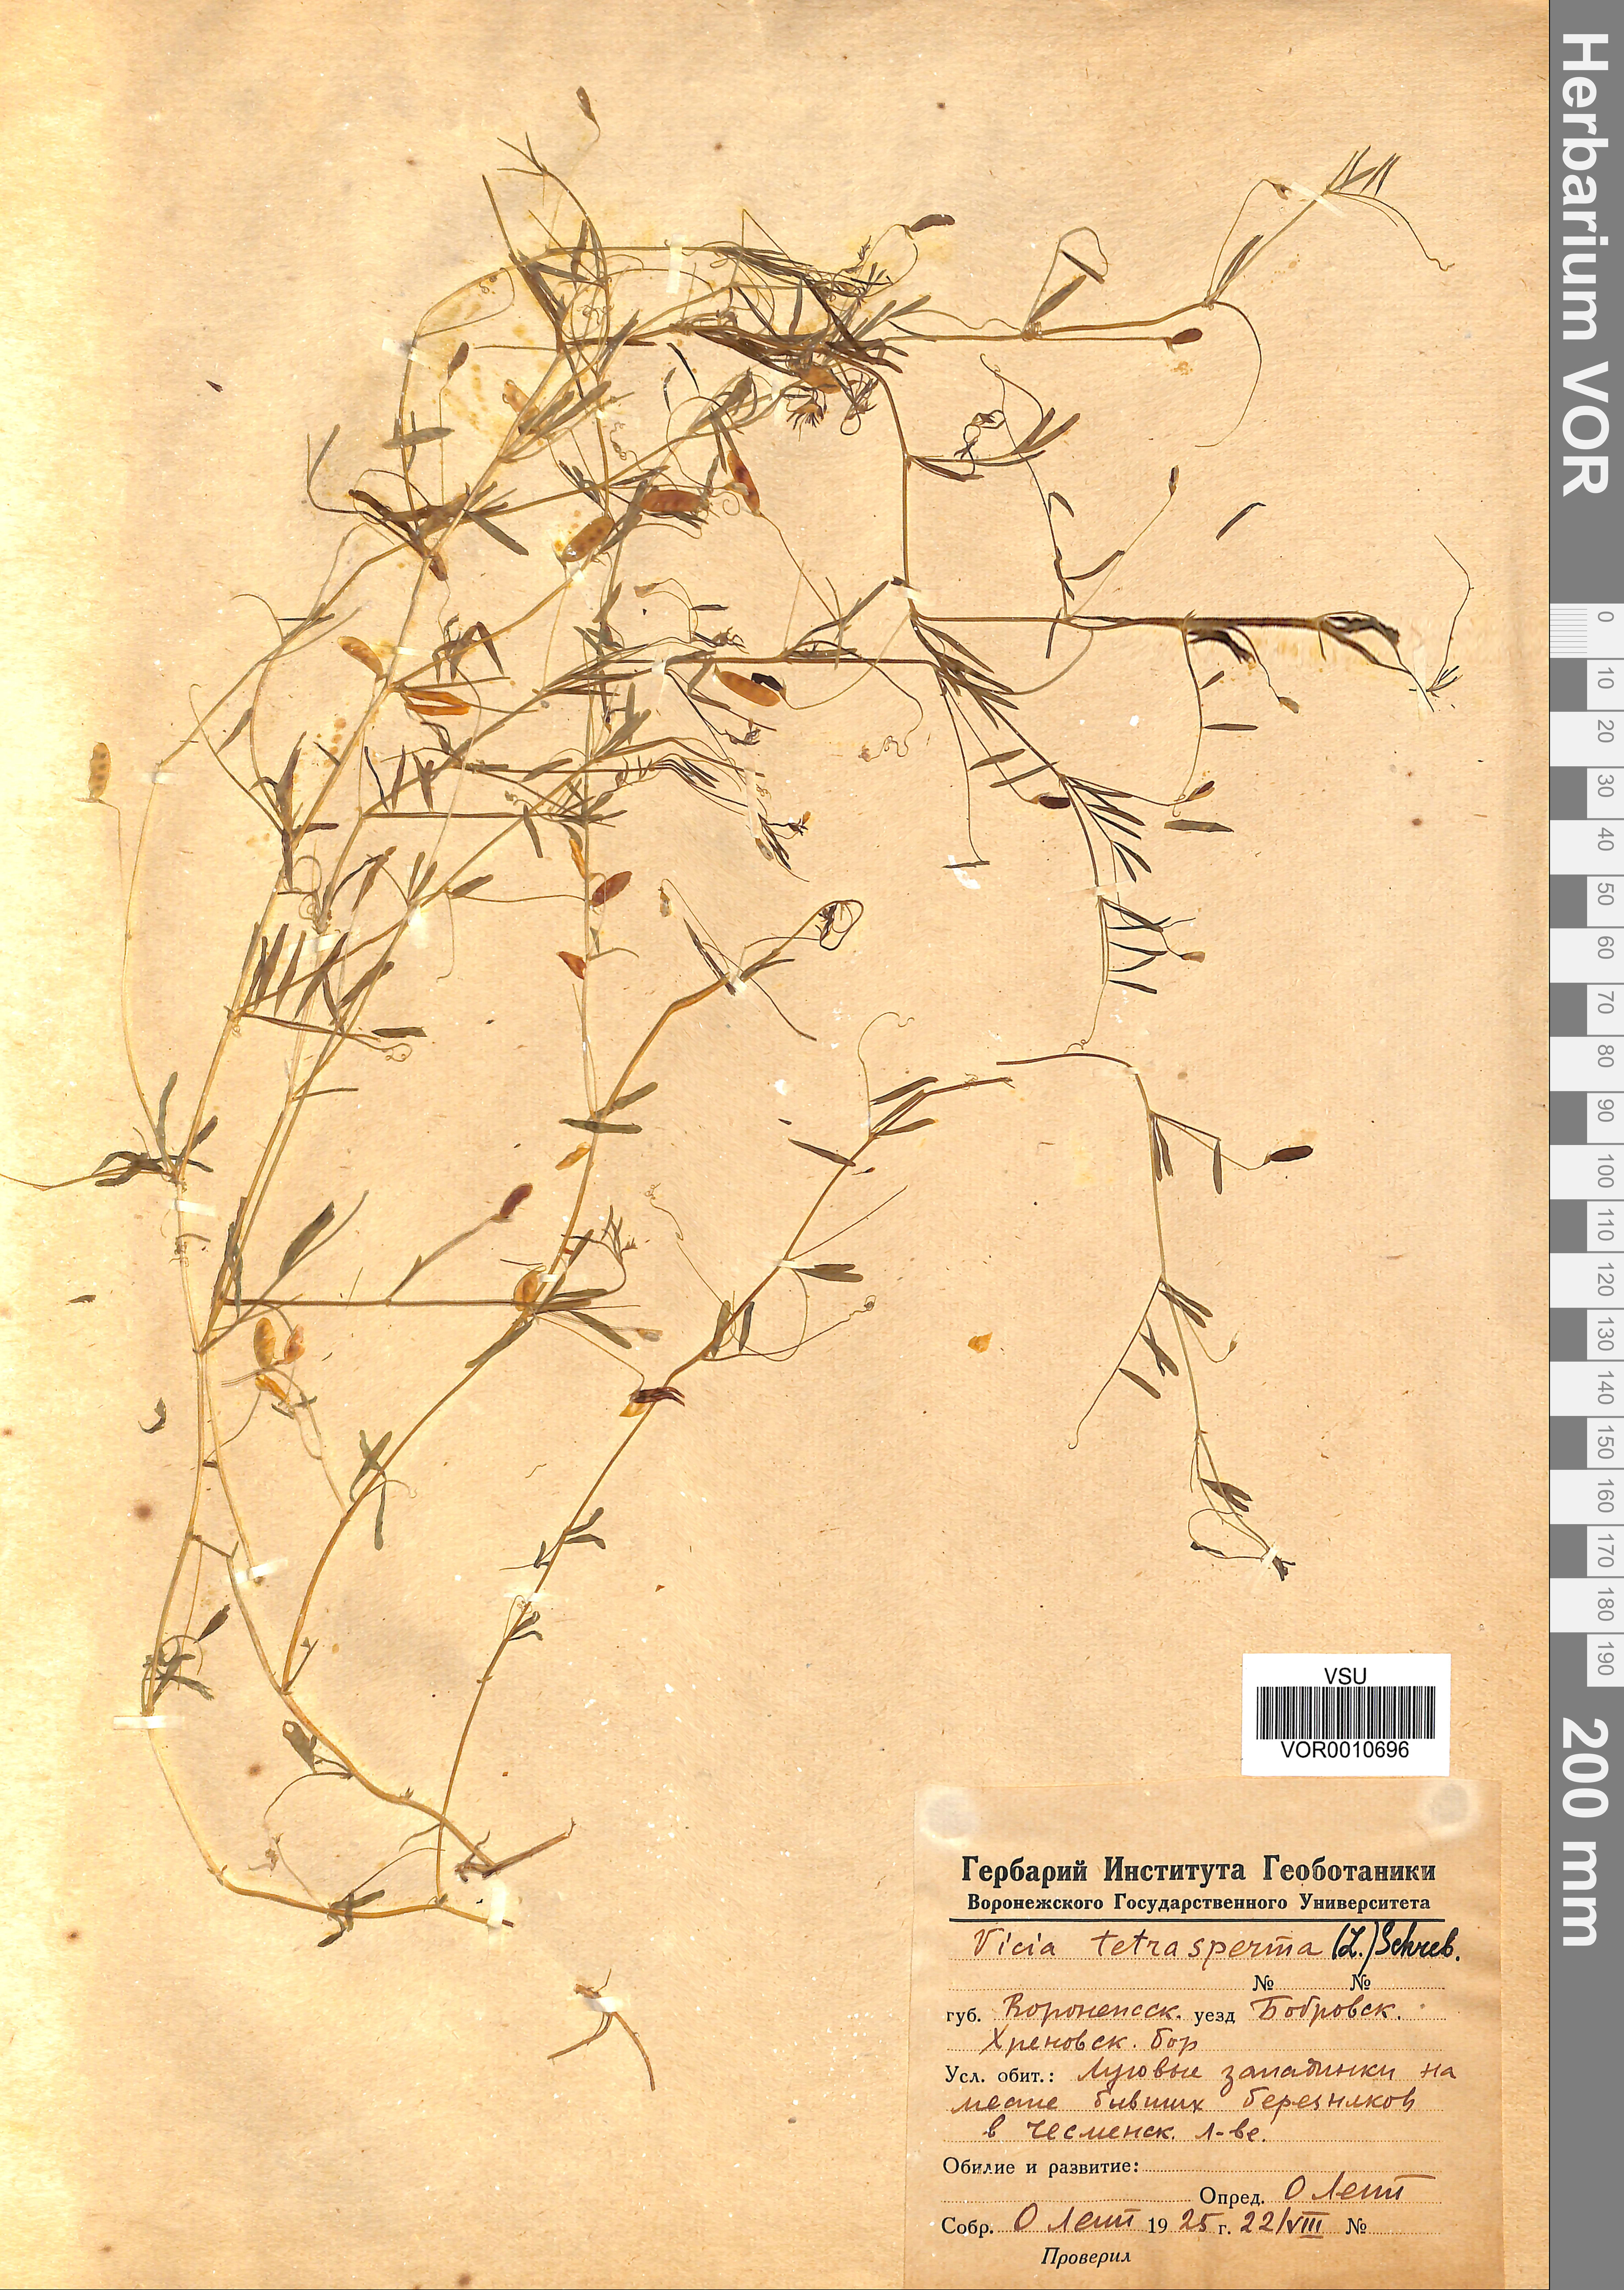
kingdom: Plantae
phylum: Tracheophyta
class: Magnoliopsida
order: Fabales
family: Fabaceae
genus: Vicia
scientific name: Vicia tetrasperma
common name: Smooth tare
